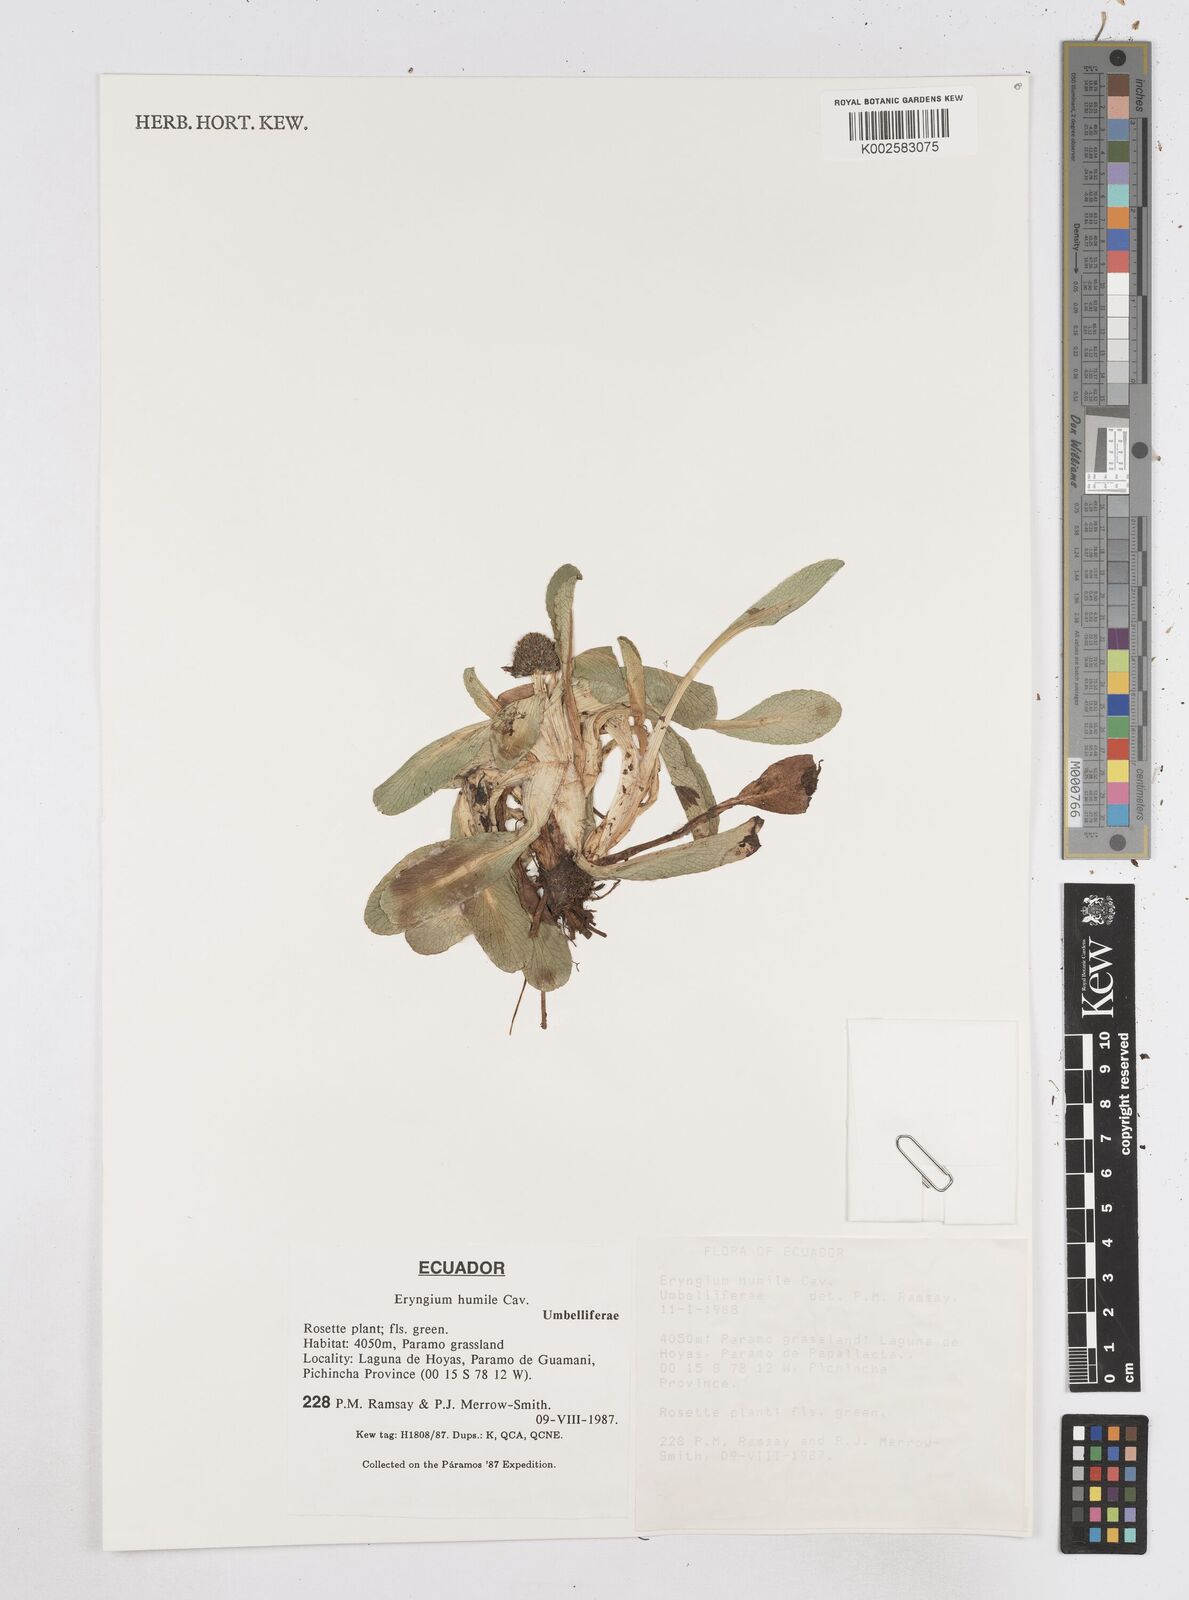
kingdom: Plantae
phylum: Tracheophyta
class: Magnoliopsida
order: Apiales
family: Apiaceae
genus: Eryngium
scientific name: Eryngium humile
